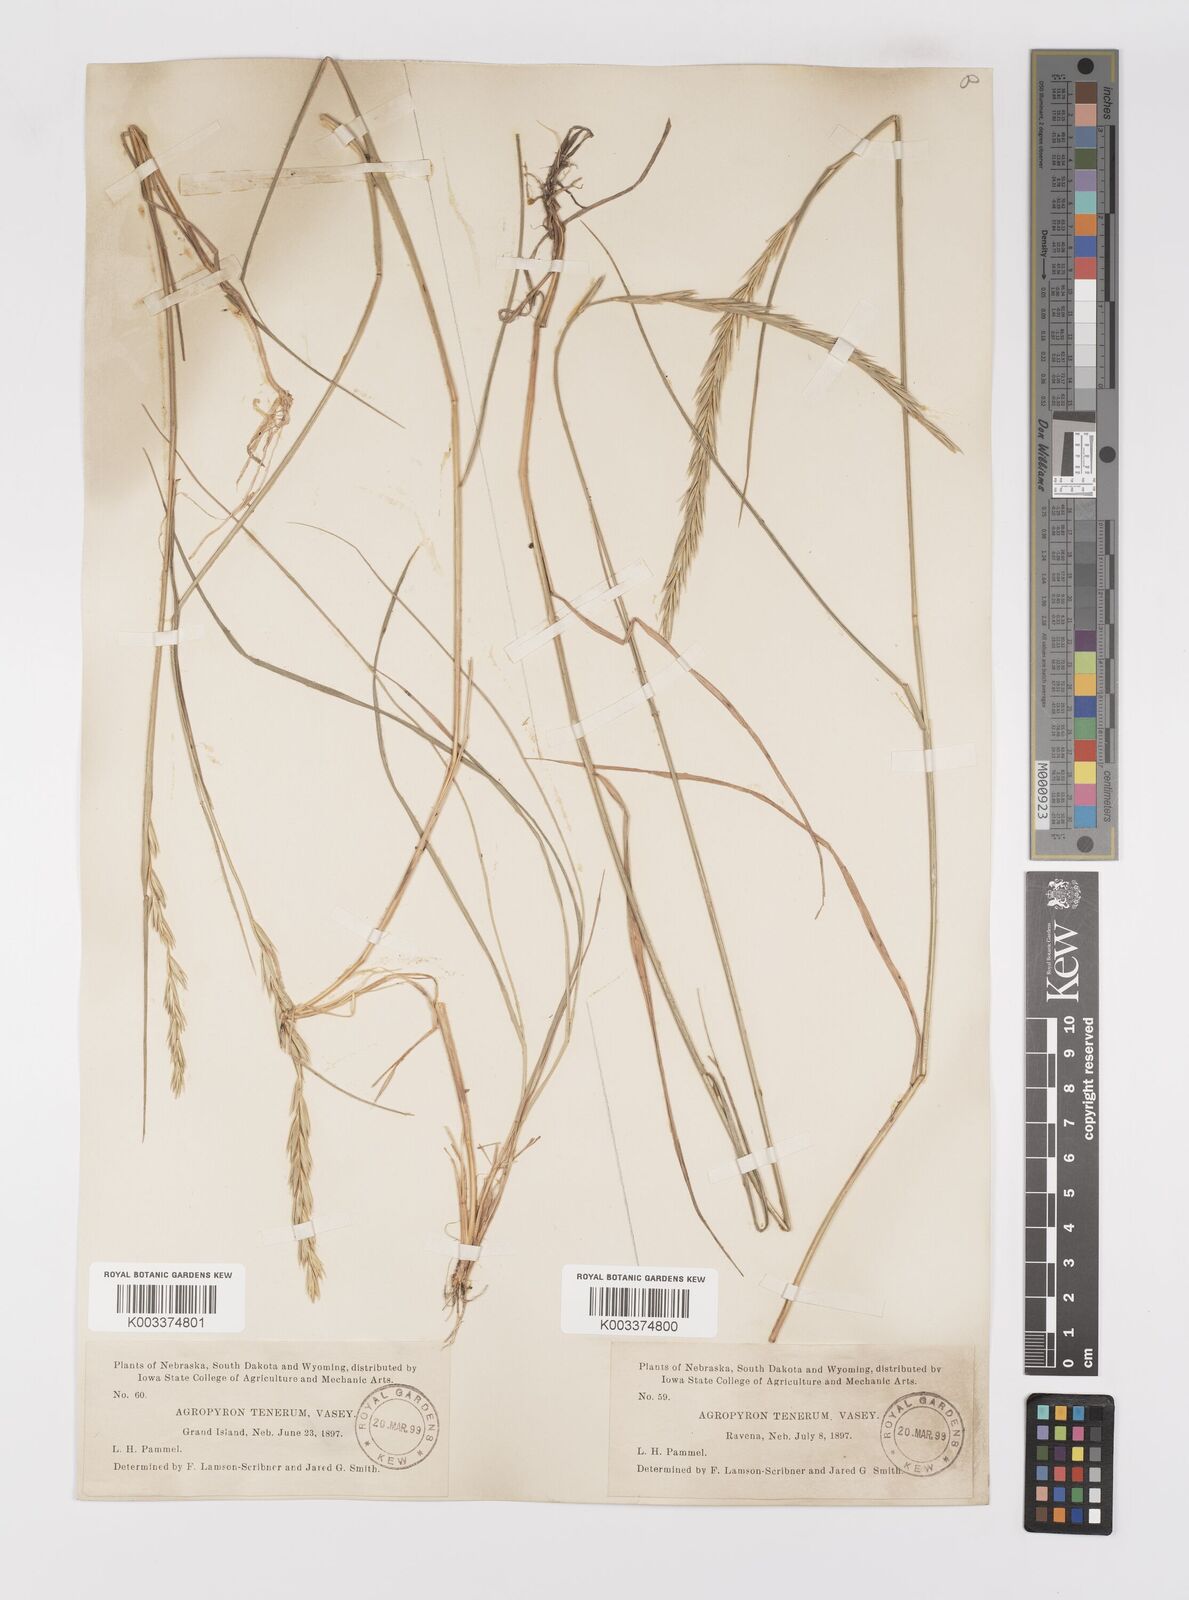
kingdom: Plantae
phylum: Tracheophyta
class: Liliopsida
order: Poales
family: Poaceae
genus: Elymus
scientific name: Elymus violaceus
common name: Arctic wheatgrass
